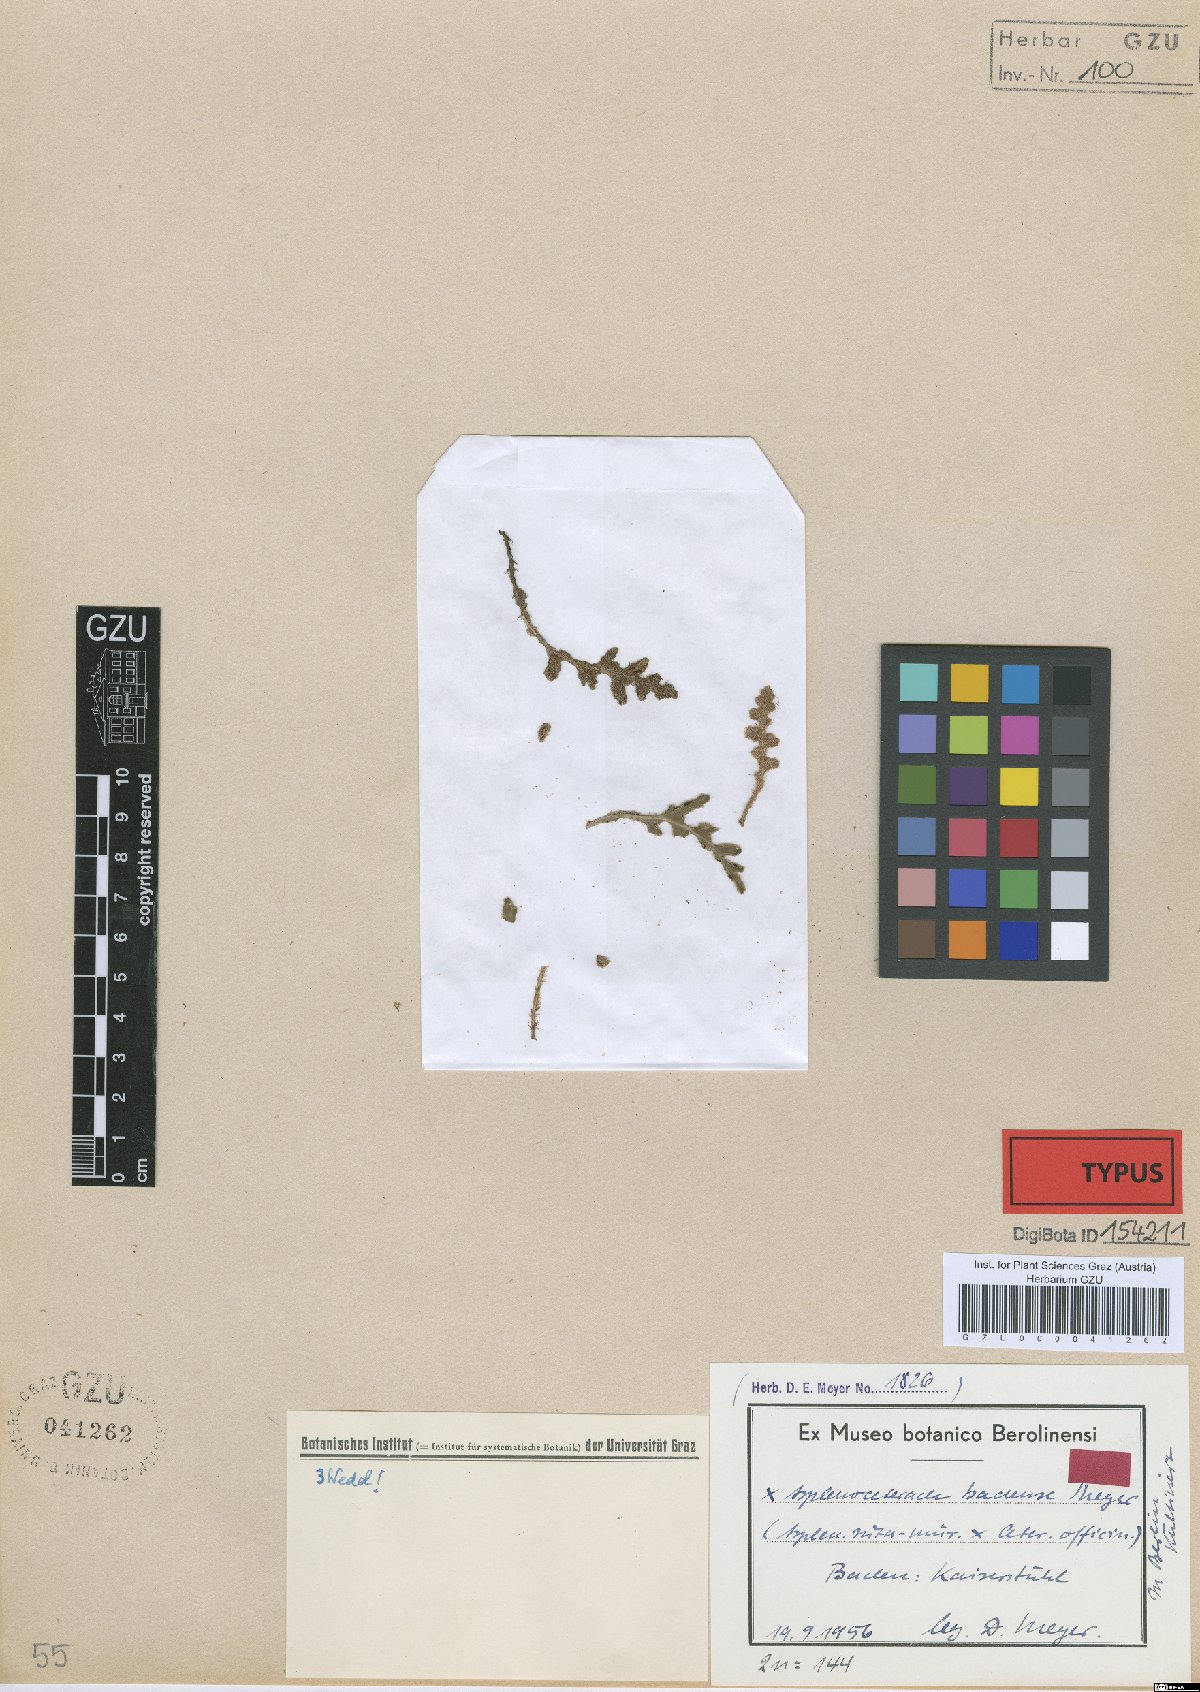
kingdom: Plantae
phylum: Tracheophyta
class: Polypodiopsida
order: Polypodiales
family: Aspleniaceae
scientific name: Aspleniaceae
